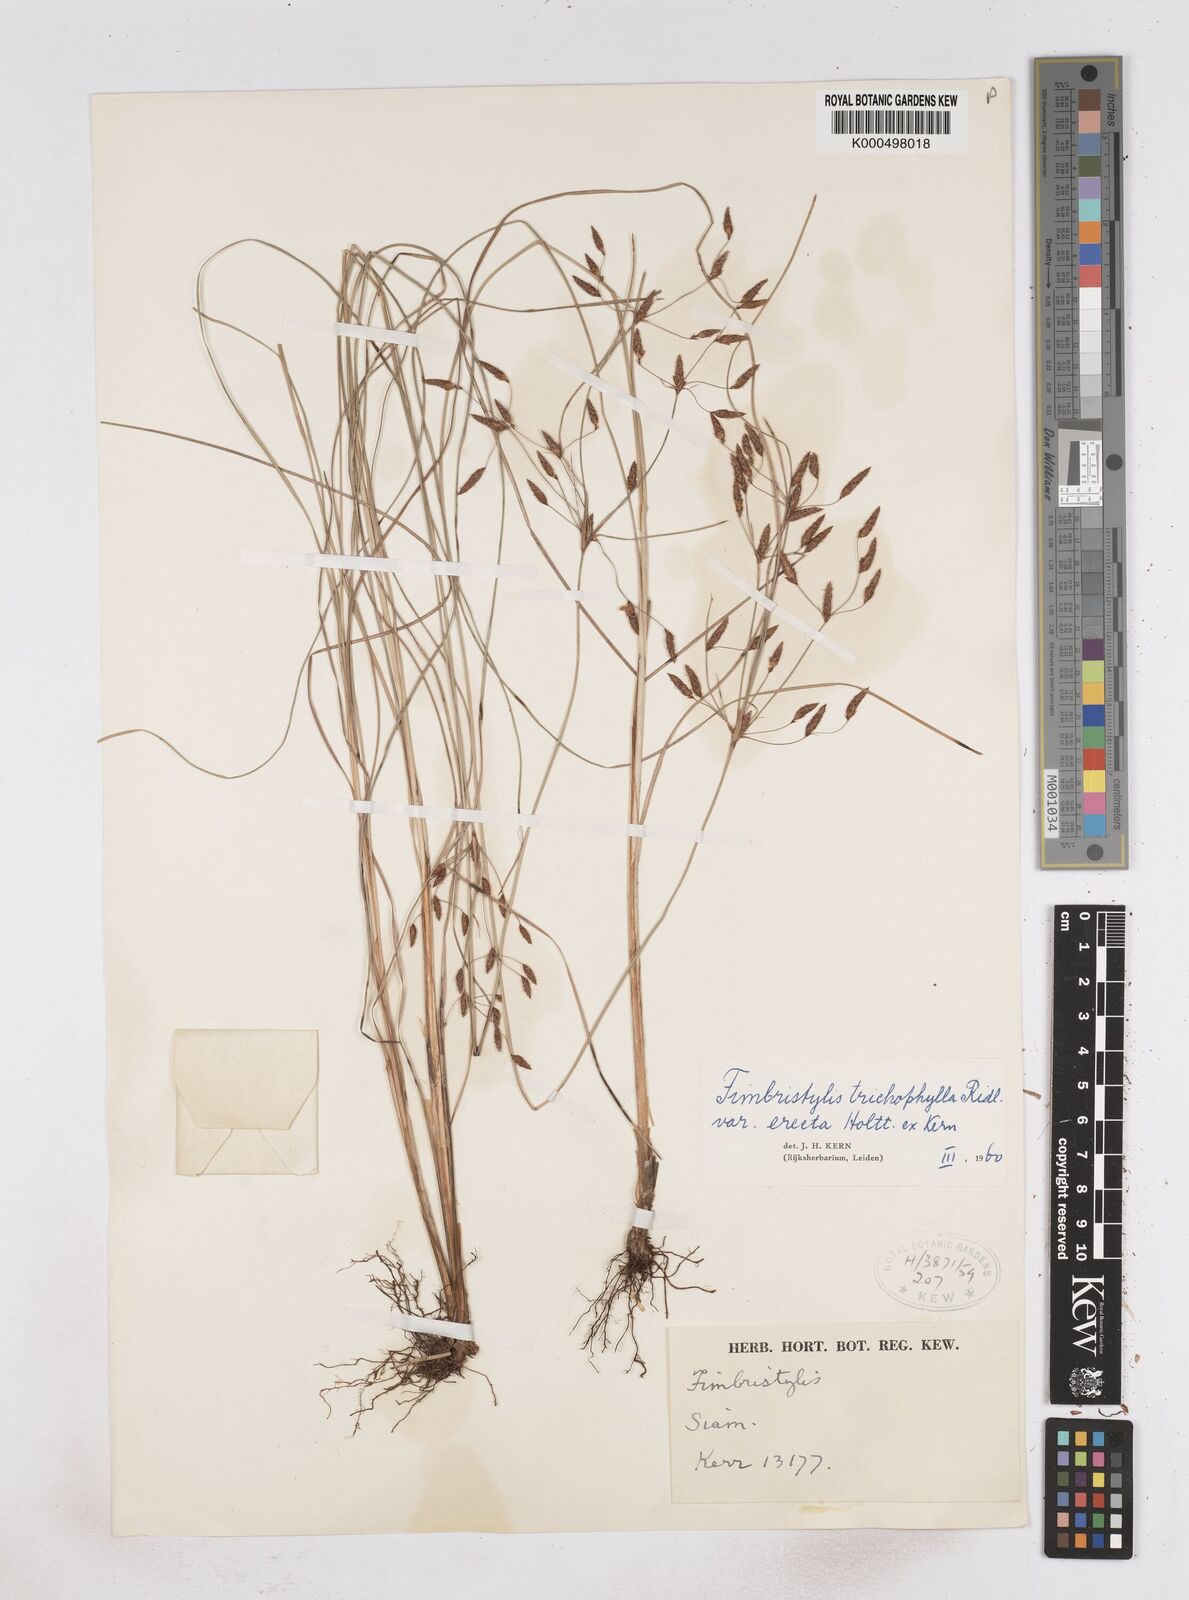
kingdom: Plantae
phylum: Tracheophyta
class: Liliopsida
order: Poales
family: Cyperaceae
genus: Fimbristylis
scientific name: Fimbristylis trichophylla
